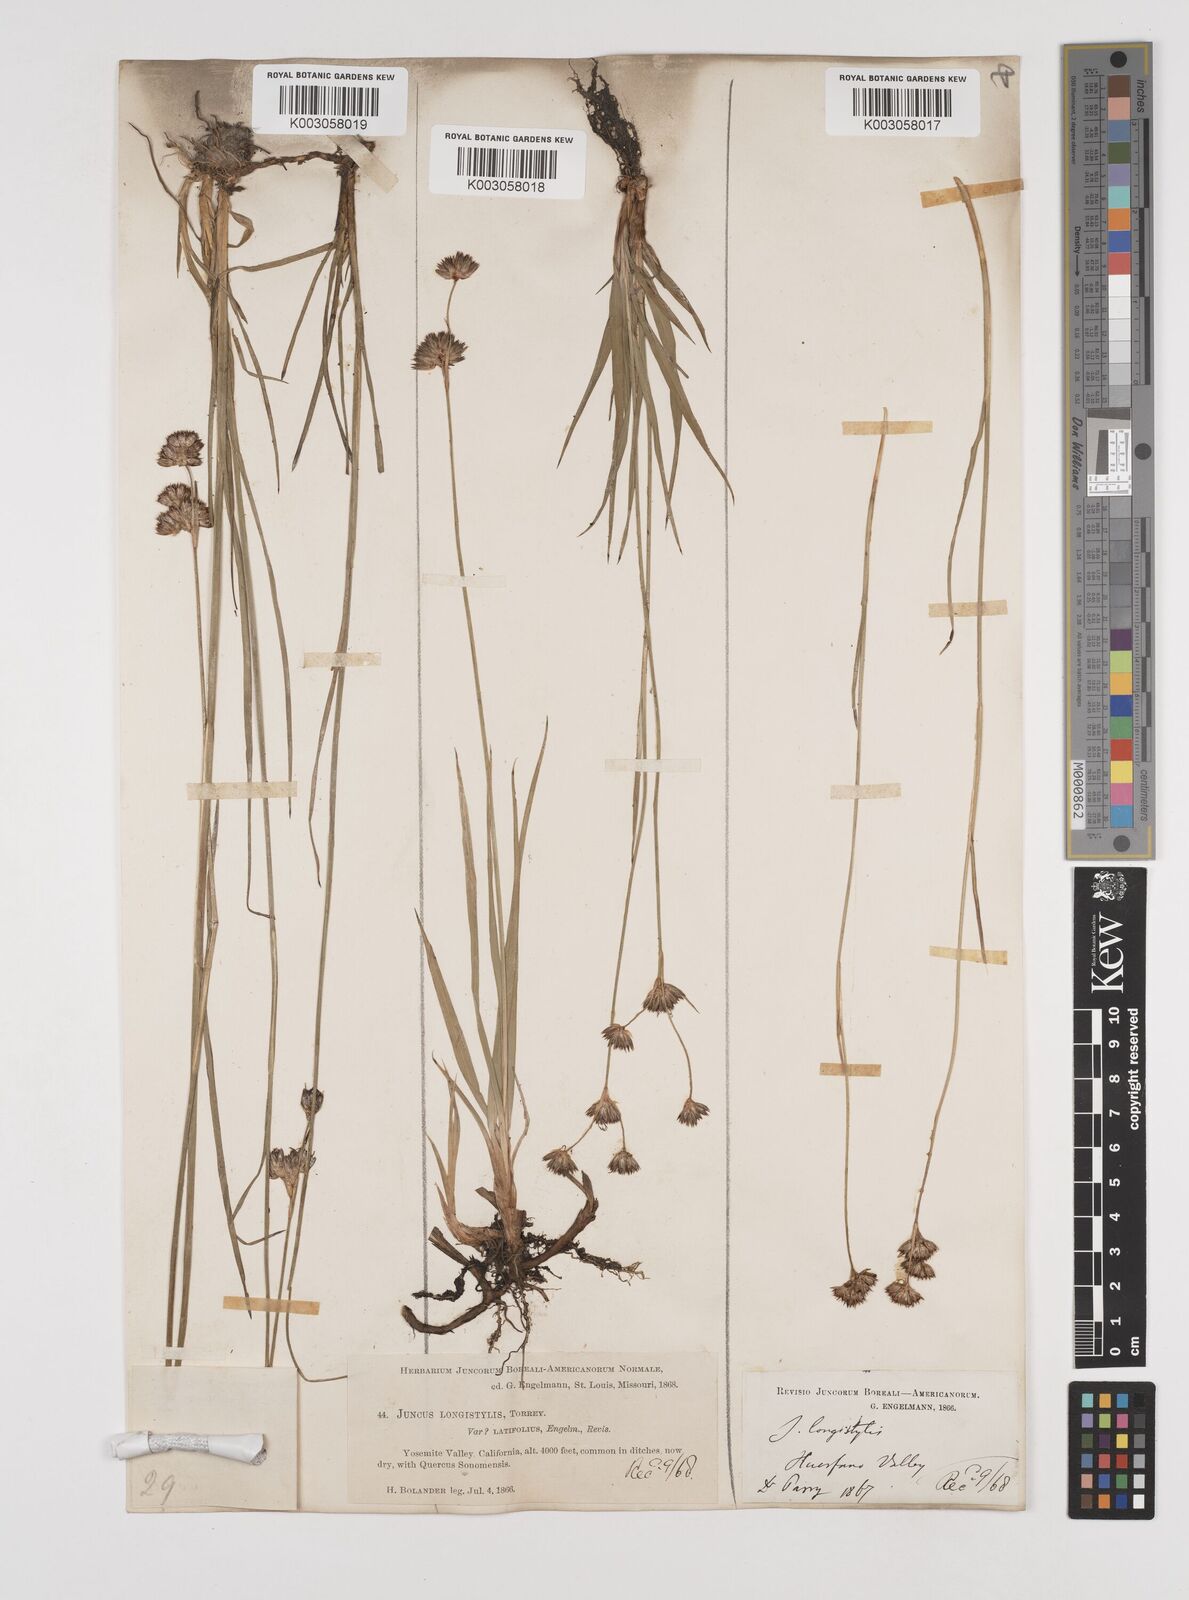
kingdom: Plantae
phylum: Tracheophyta
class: Liliopsida
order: Poales
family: Juncaceae
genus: Juncus
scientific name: Juncus longistylis
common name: Long-style rush
